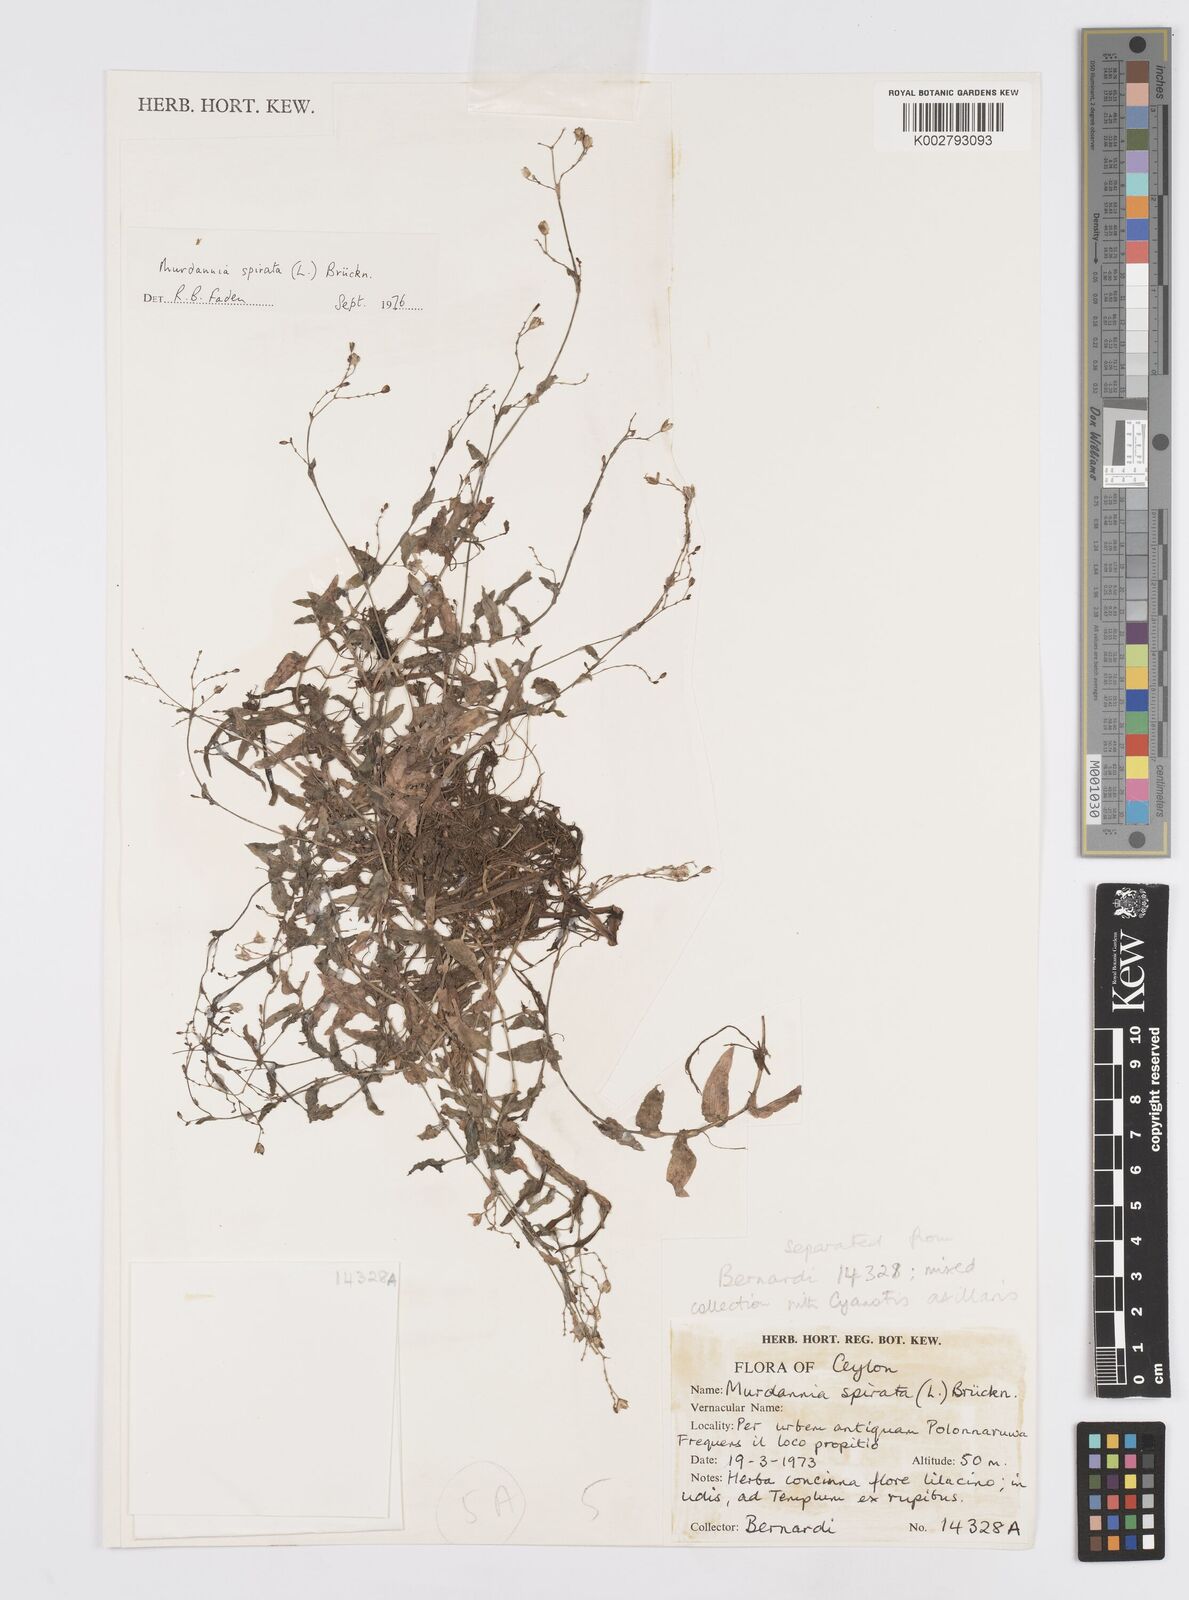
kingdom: Plantae
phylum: Tracheophyta
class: Liliopsida
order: Commelinales
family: Commelinaceae
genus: Murdannia
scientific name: Murdannia spirata
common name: Asiatic dewflower
